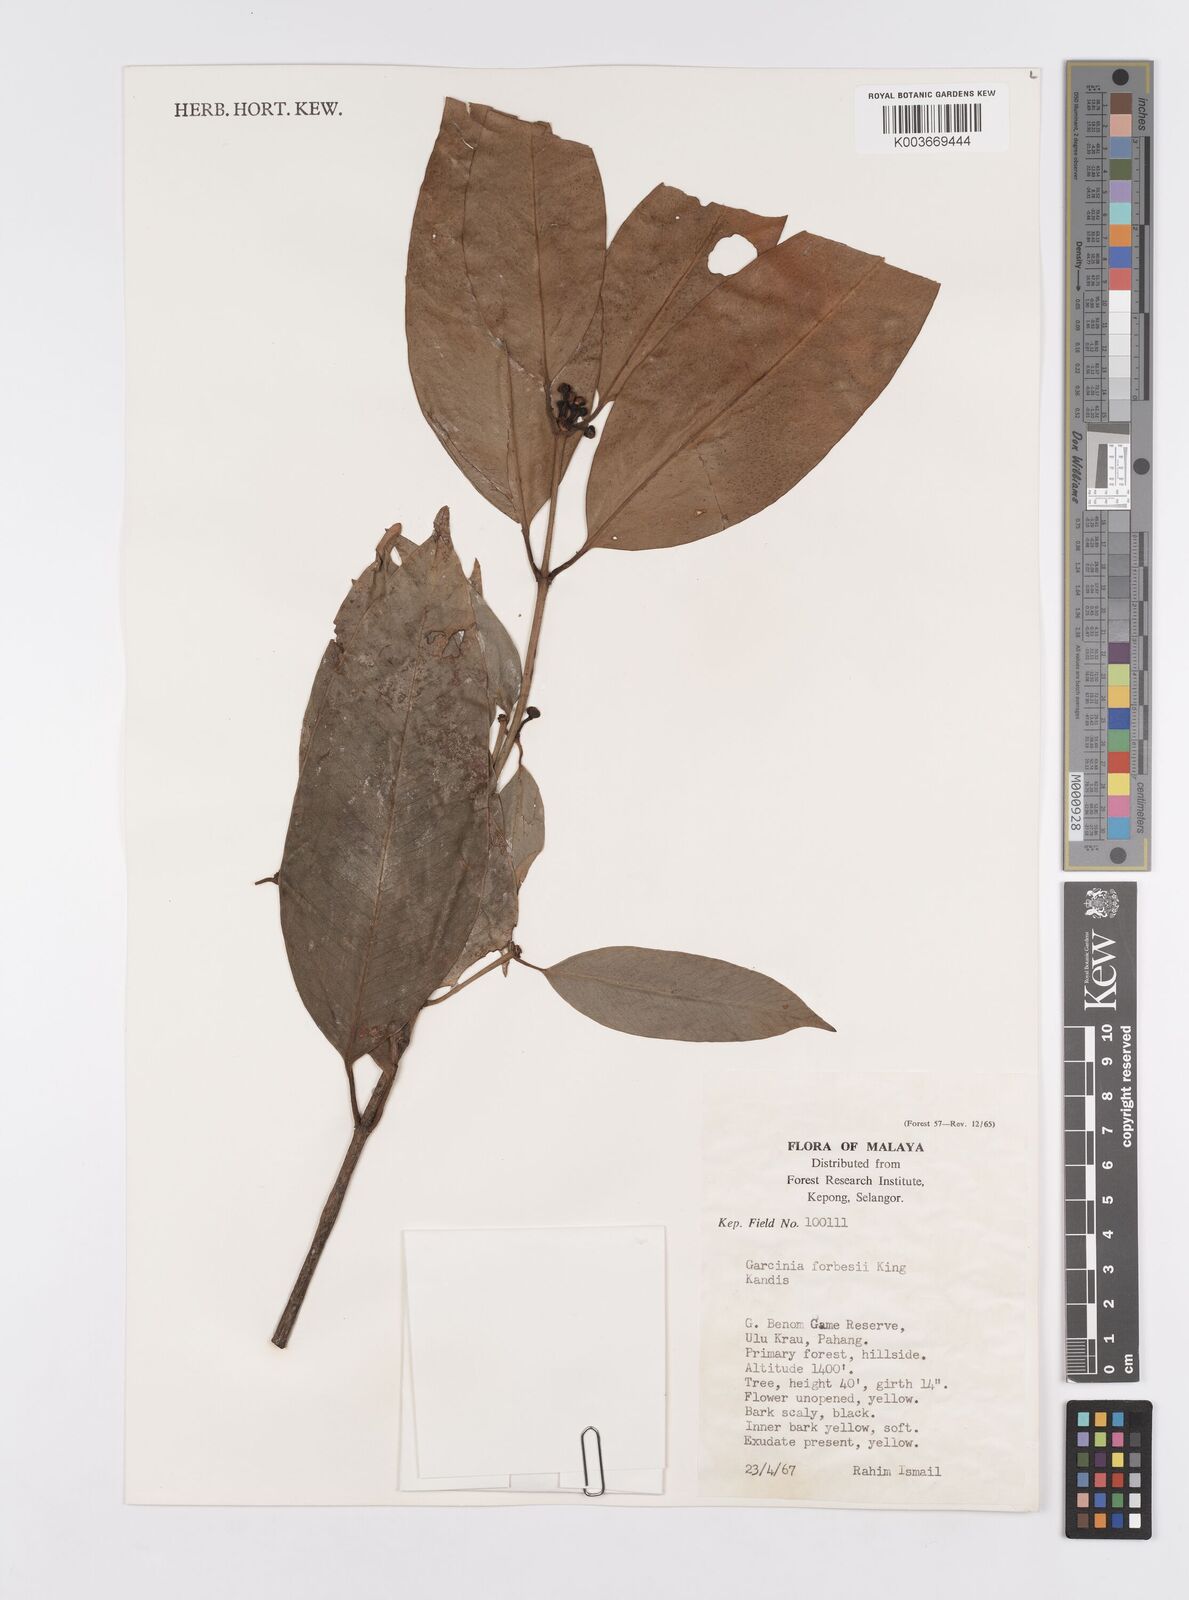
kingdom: Plantae
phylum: Tracheophyta
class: Magnoliopsida
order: Malpighiales
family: Clusiaceae
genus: Garcinia
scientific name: Garcinia forbesii
